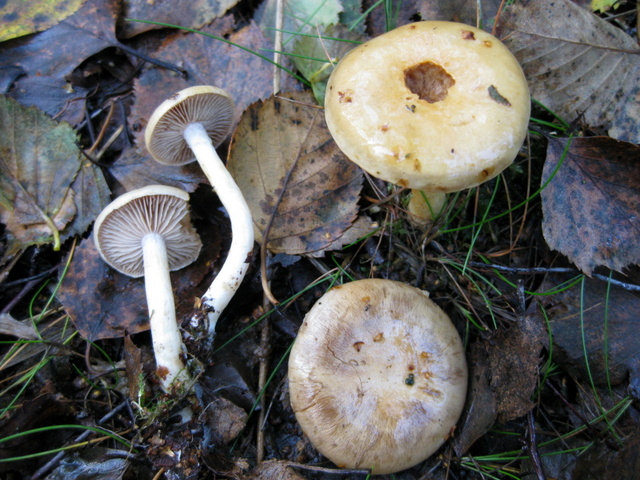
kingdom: Fungi
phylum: Basidiomycota
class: Agaricomycetes
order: Agaricales
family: Cortinariaceae
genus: Cortinarius
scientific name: Cortinarius delibutus
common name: gul slørhat
